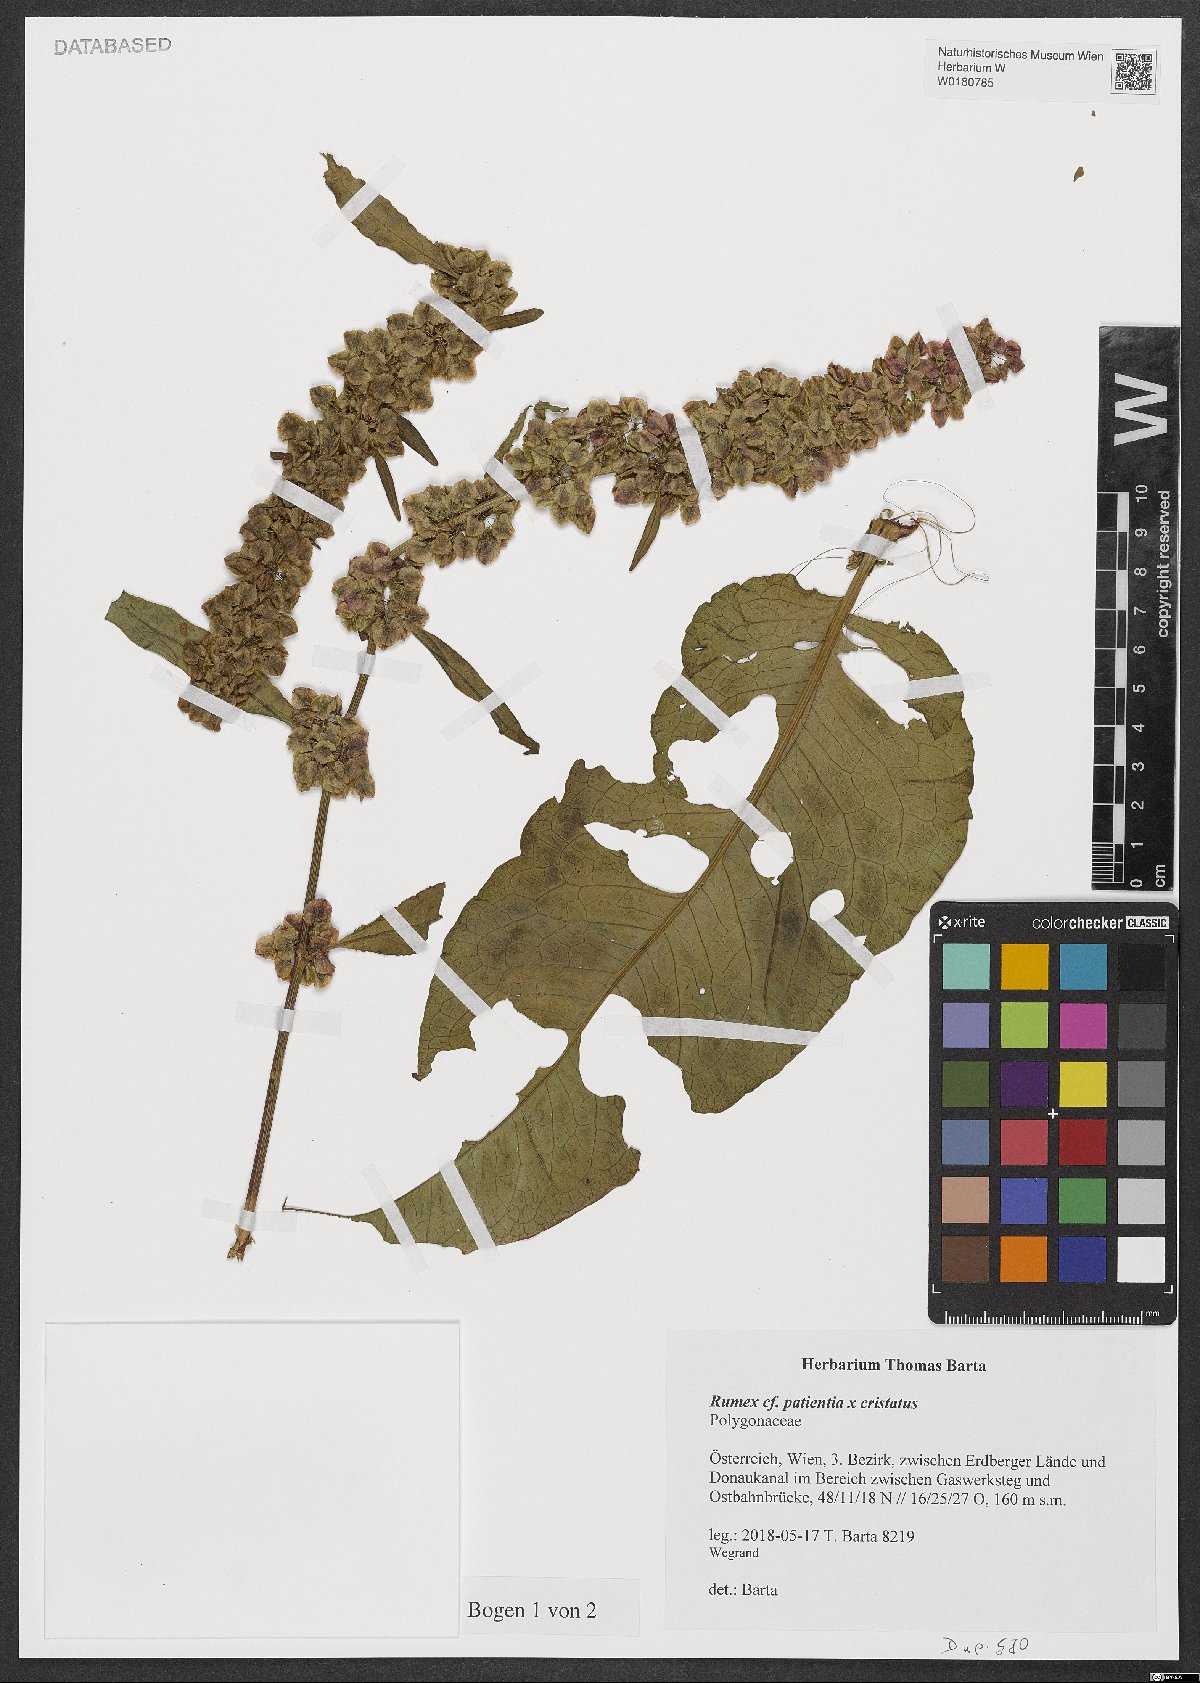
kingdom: Plantae
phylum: Tracheophyta
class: Magnoliopsida
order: Caryophyllales
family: Polygonaceae
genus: Rumex
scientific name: Rumex patientia
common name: Patience dock
